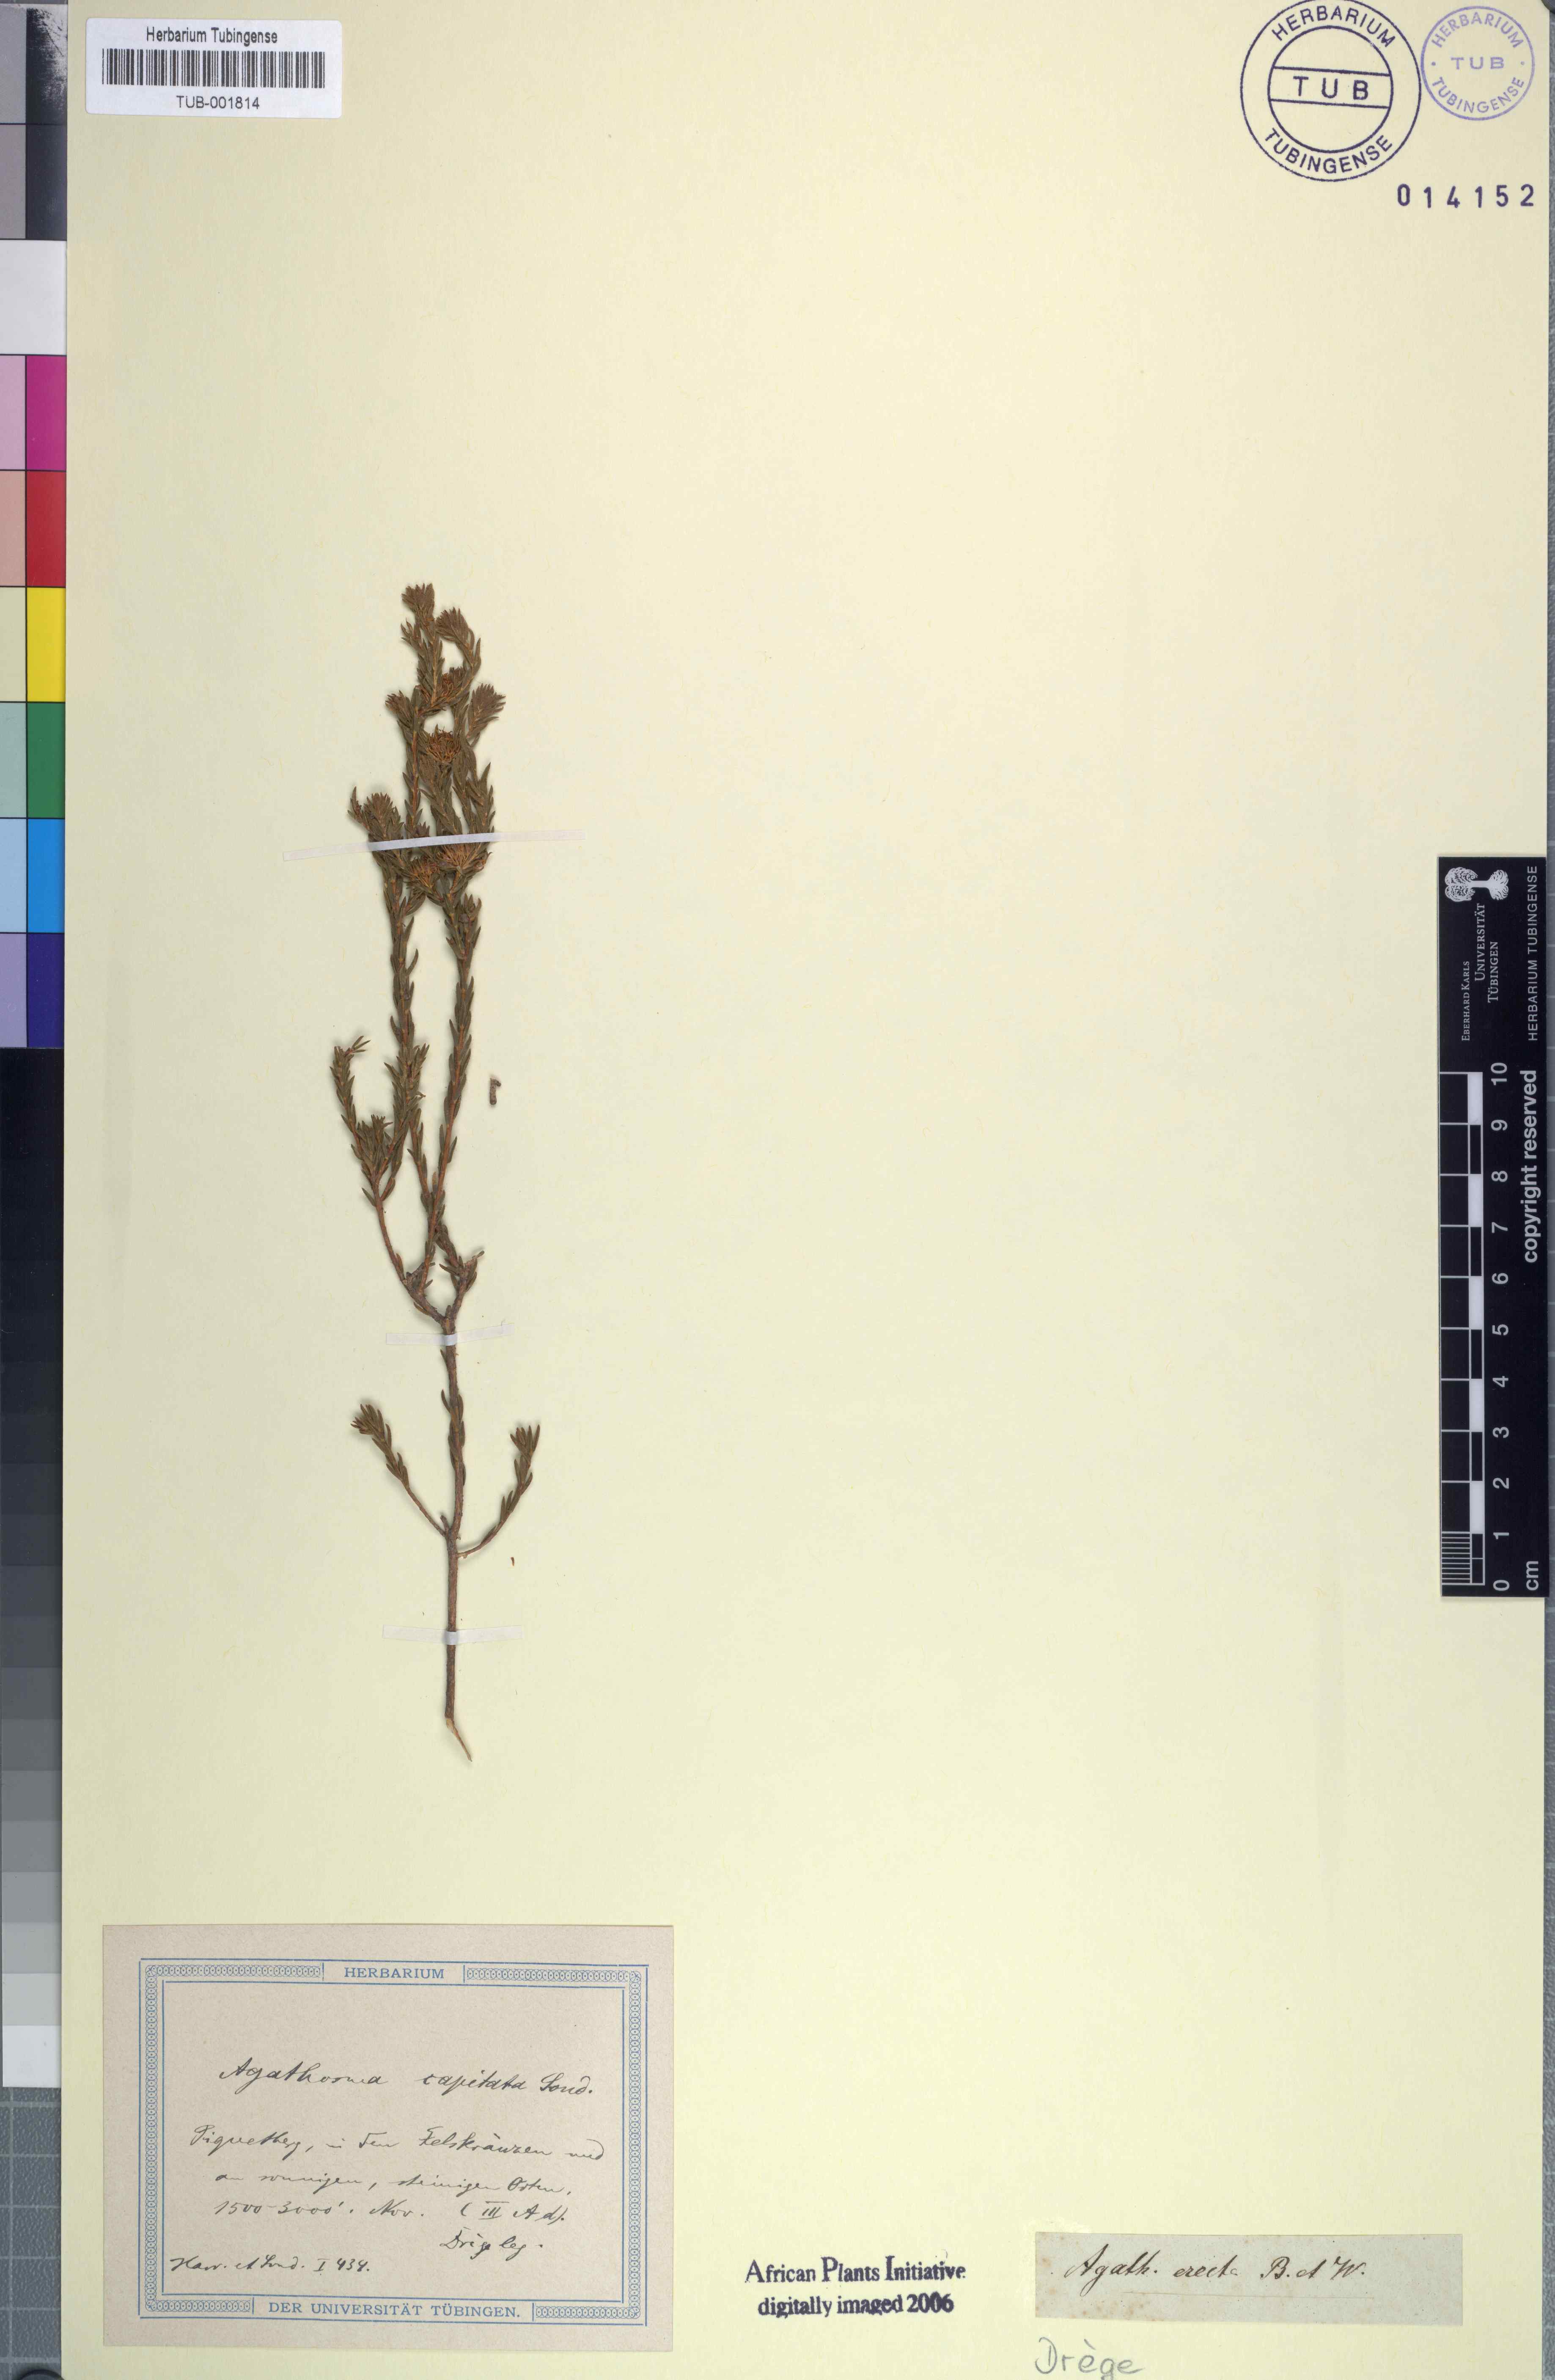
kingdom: Plantae
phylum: Tracheophyta
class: Magnoliopsida
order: Sapindales
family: Rutaceae
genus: Agathosma
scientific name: Agathosma capensis
